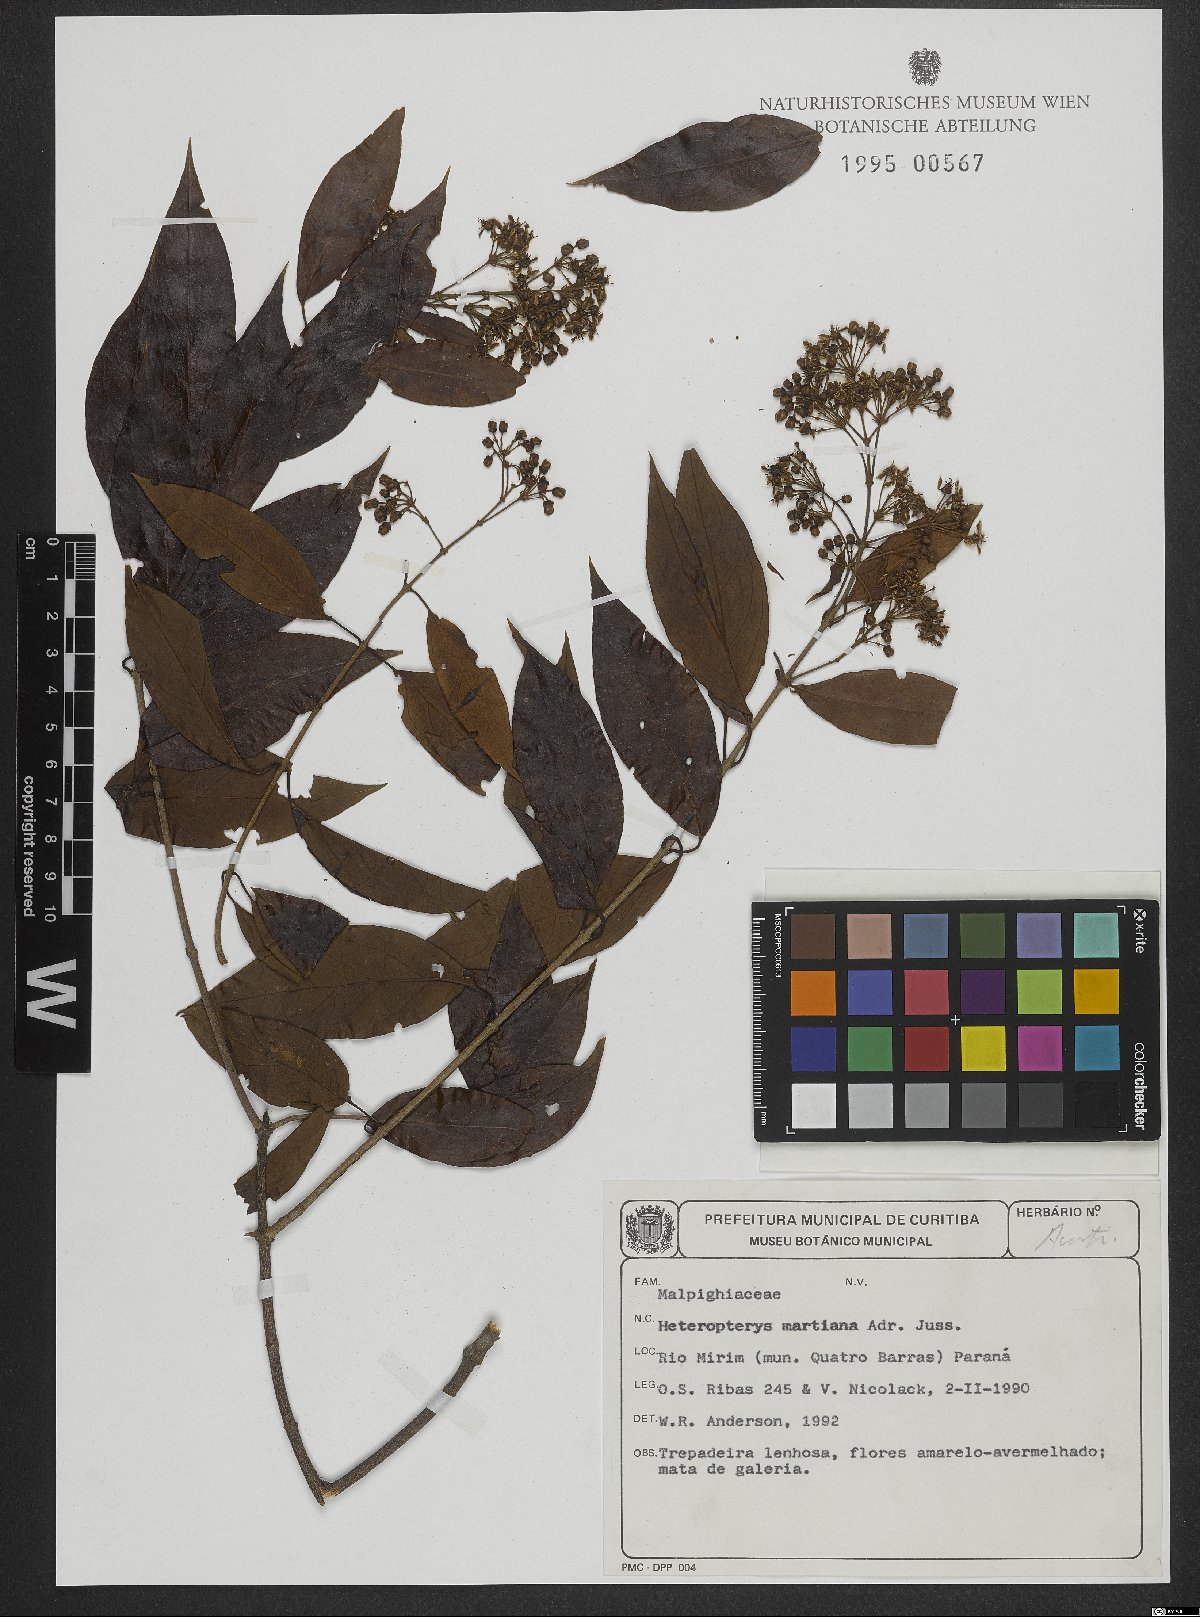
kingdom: Plantae
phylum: Tracheophyta
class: Magnoliopsida
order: Malpighiales
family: Malpighiaceae
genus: Heteropterys
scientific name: Heteropterys syringifolia
